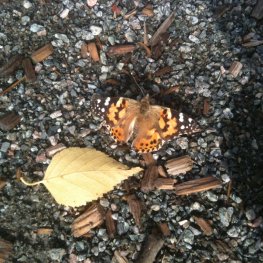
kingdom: Animalia
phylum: Arthropoda
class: Insecta
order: Lepidoptera
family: Nymphalidae
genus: Vanessa
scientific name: Vanessa cardui
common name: Painted Lady
